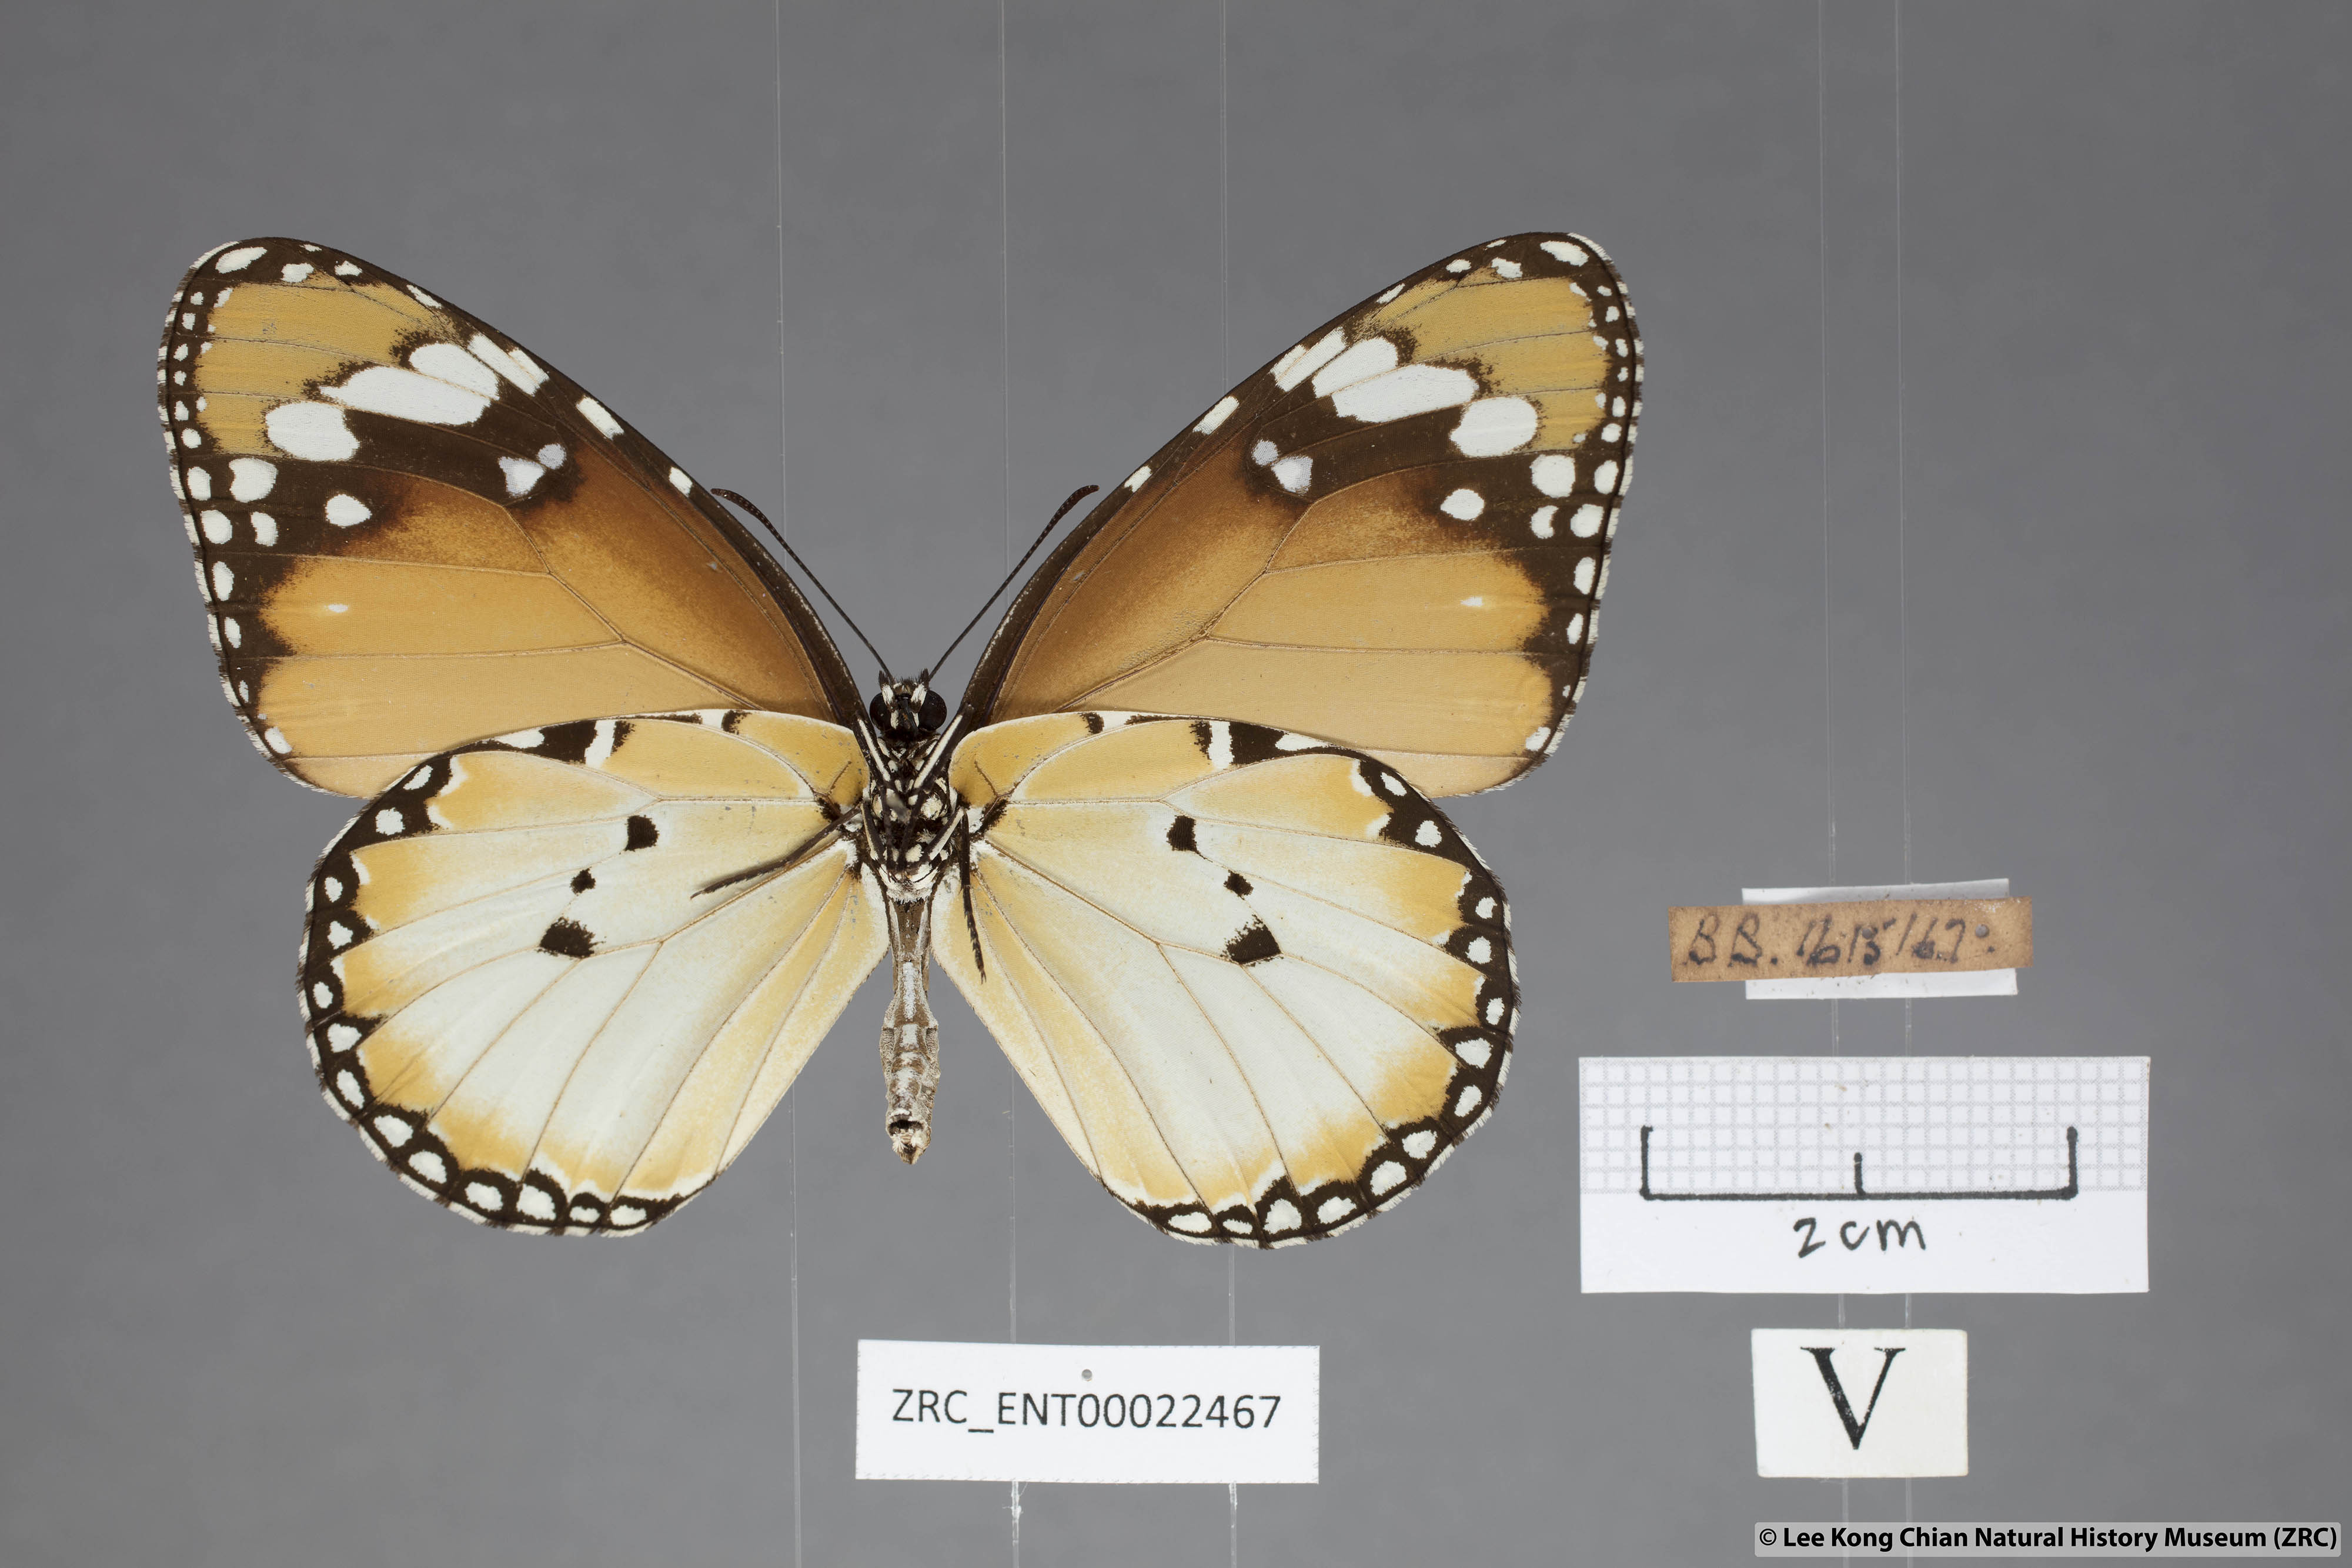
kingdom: Animalia
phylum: Arthropoda
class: Insecta
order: Lepidoptera
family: Nymphalidae
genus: Danaus
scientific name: Danaus chrysippus
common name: Plain tiger
